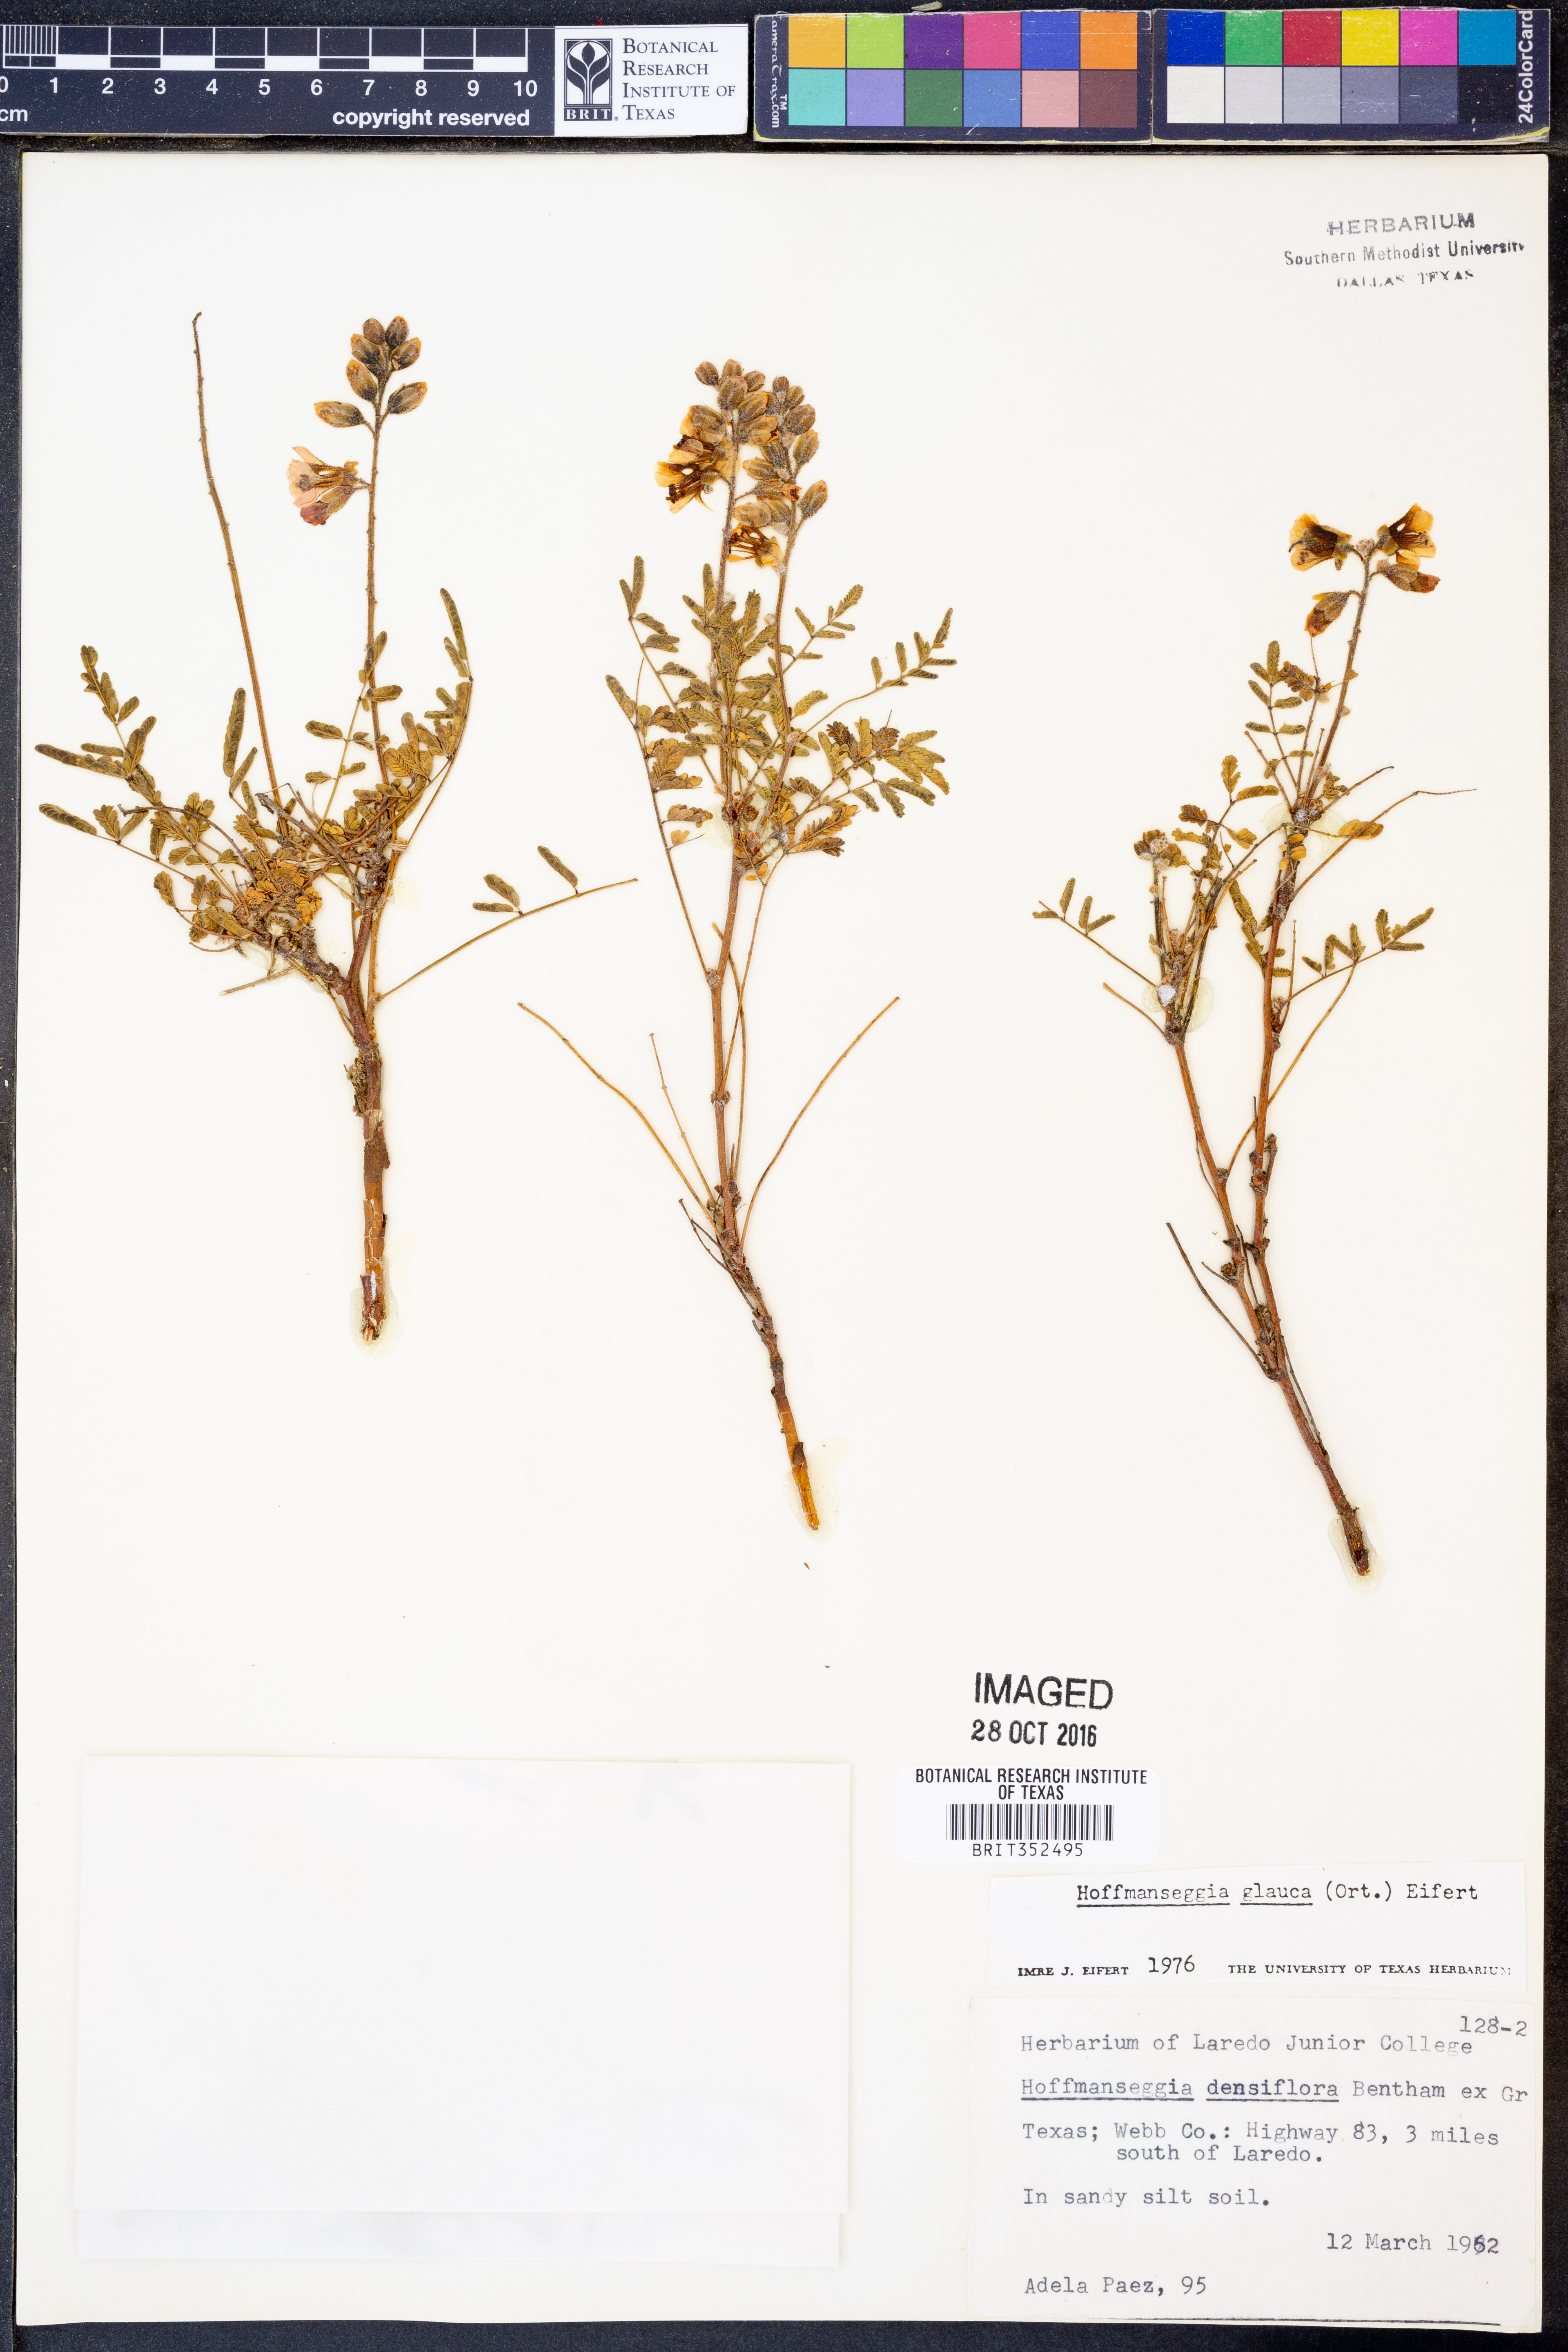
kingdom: Plantae
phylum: Tracheophyta
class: Magnoliopsida
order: Fabales
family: Fabaceae
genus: Hoffmannseggia
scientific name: Hoffmannseggia glauca
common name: Pignut
